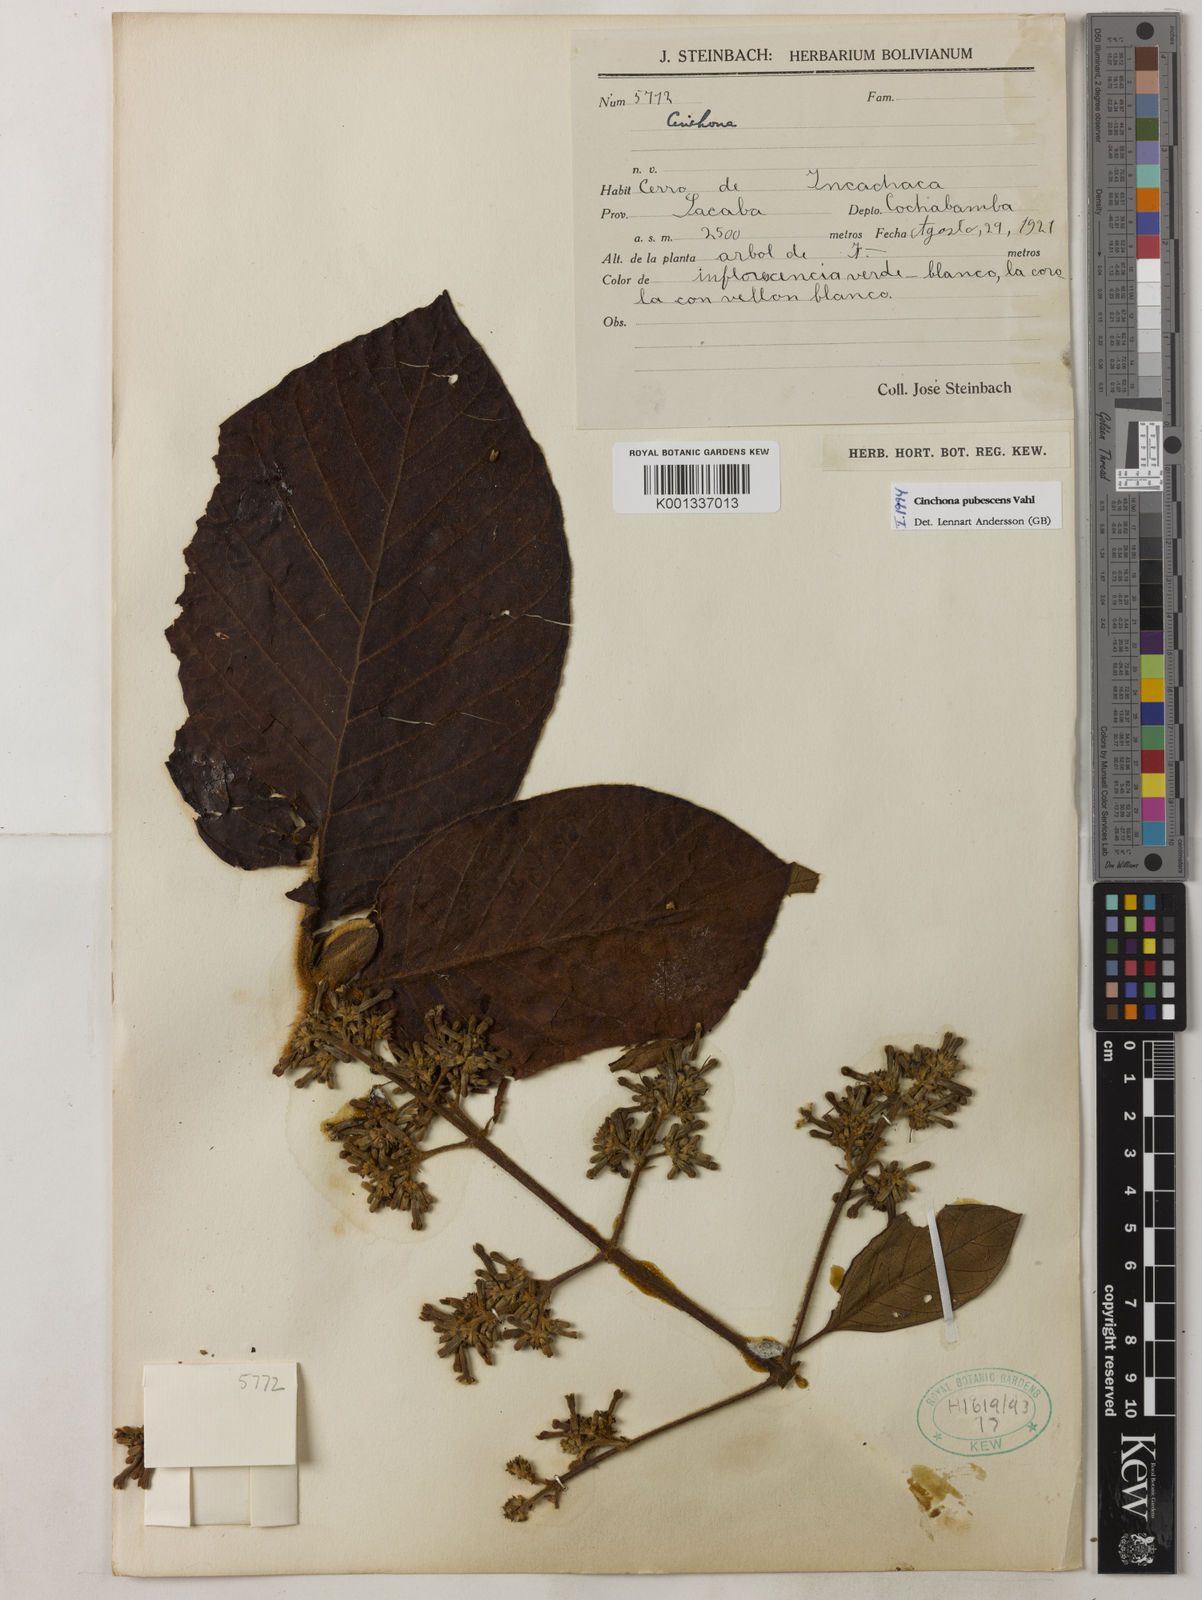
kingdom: Plantae
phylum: Tracheophyta
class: Magnoliopsida
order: Gentianales
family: Rubiaceae
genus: Cinchona
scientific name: Cinchona pubescens
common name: Quinine
